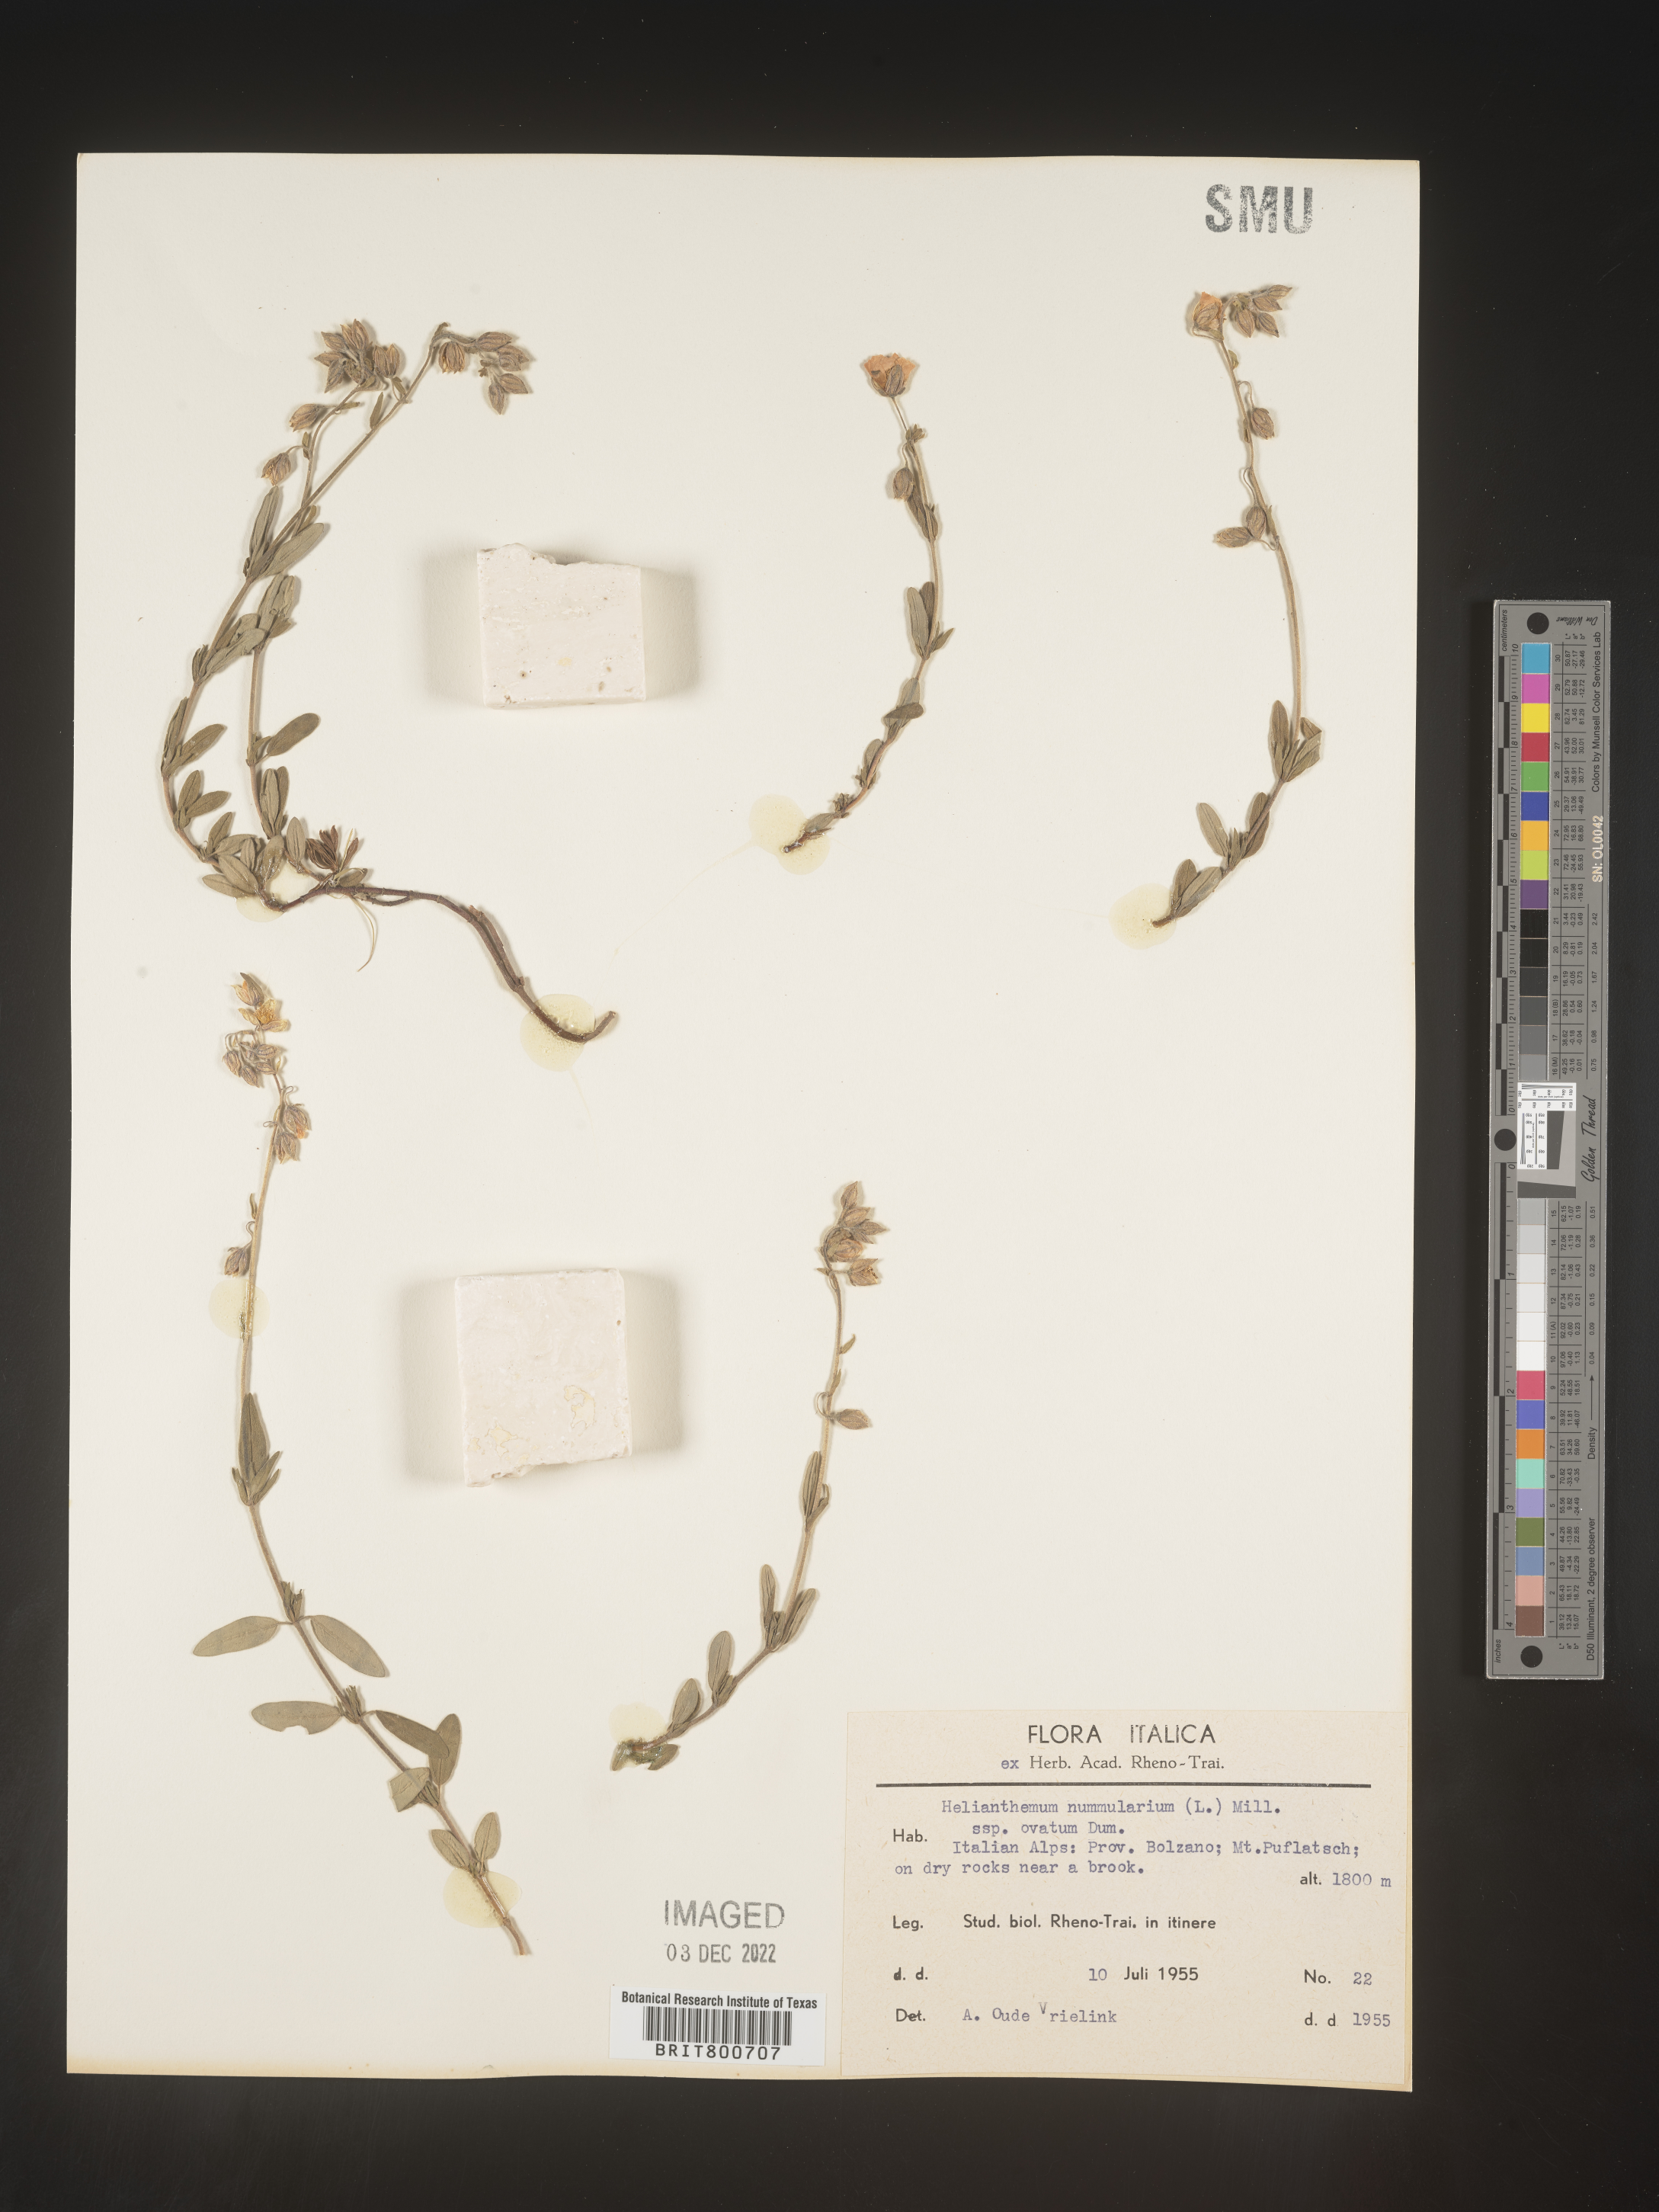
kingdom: Plantae
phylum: Tracheophyta
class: Magnoliopsida
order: Malvales
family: Cistaceae
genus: Helianthemum
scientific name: Helianthemum
